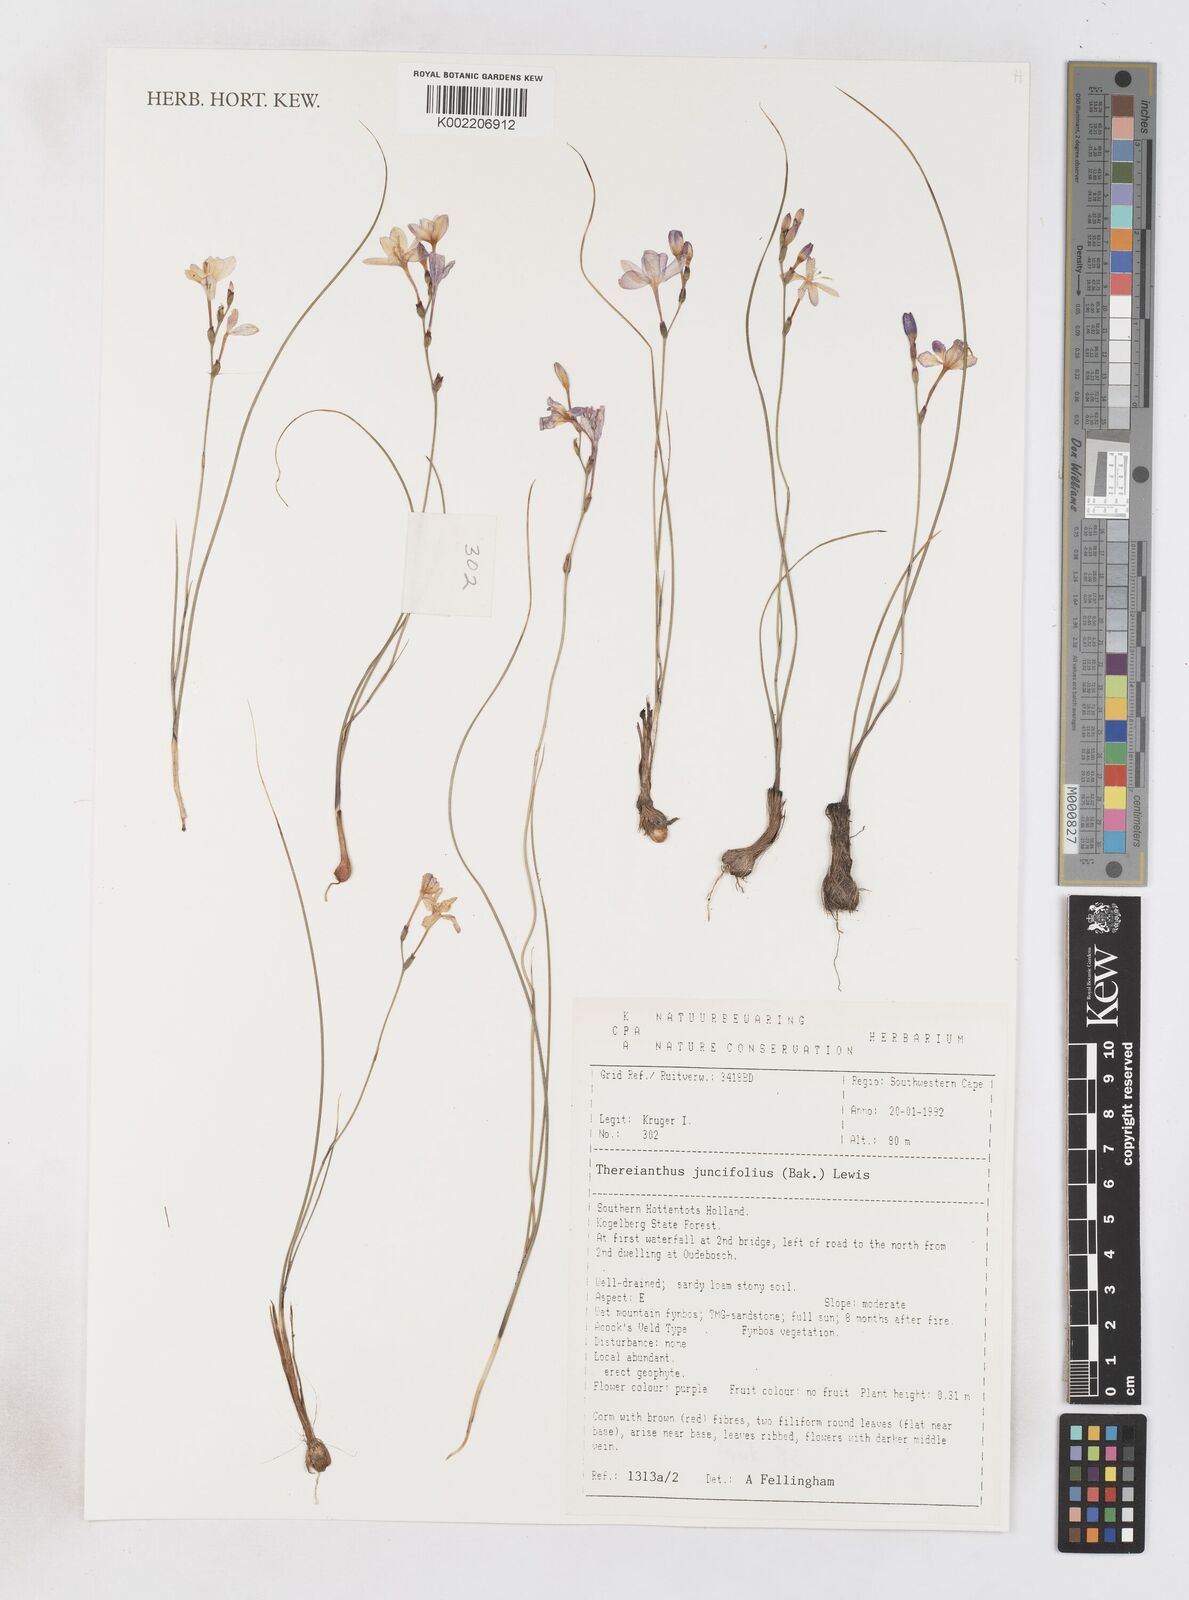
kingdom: Plantae
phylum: Tracheophyta
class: Liliopsida
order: Asparagales
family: Iridaceae
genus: Micranthus
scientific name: Micranthus plantagineus
